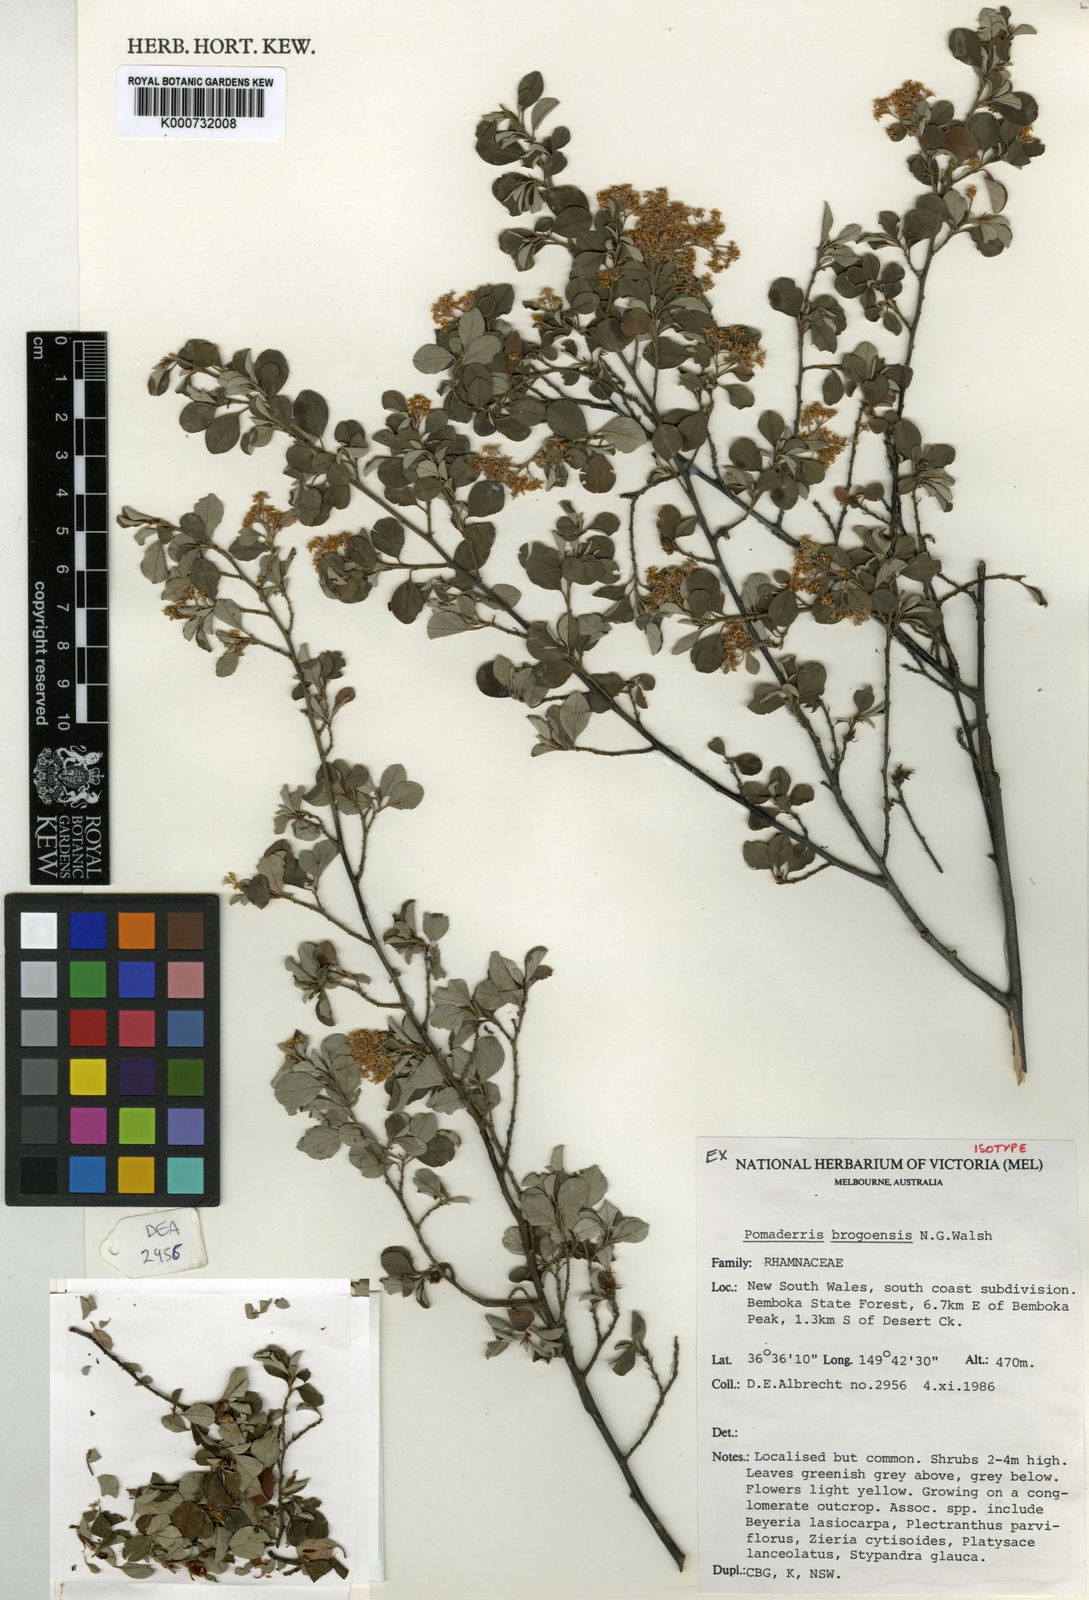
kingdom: Plantae
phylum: Tracheophyta
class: Magnoliopsida
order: Rosales
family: Rhamnaceae
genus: Pomaderris
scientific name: Pomaderris brogoensis
